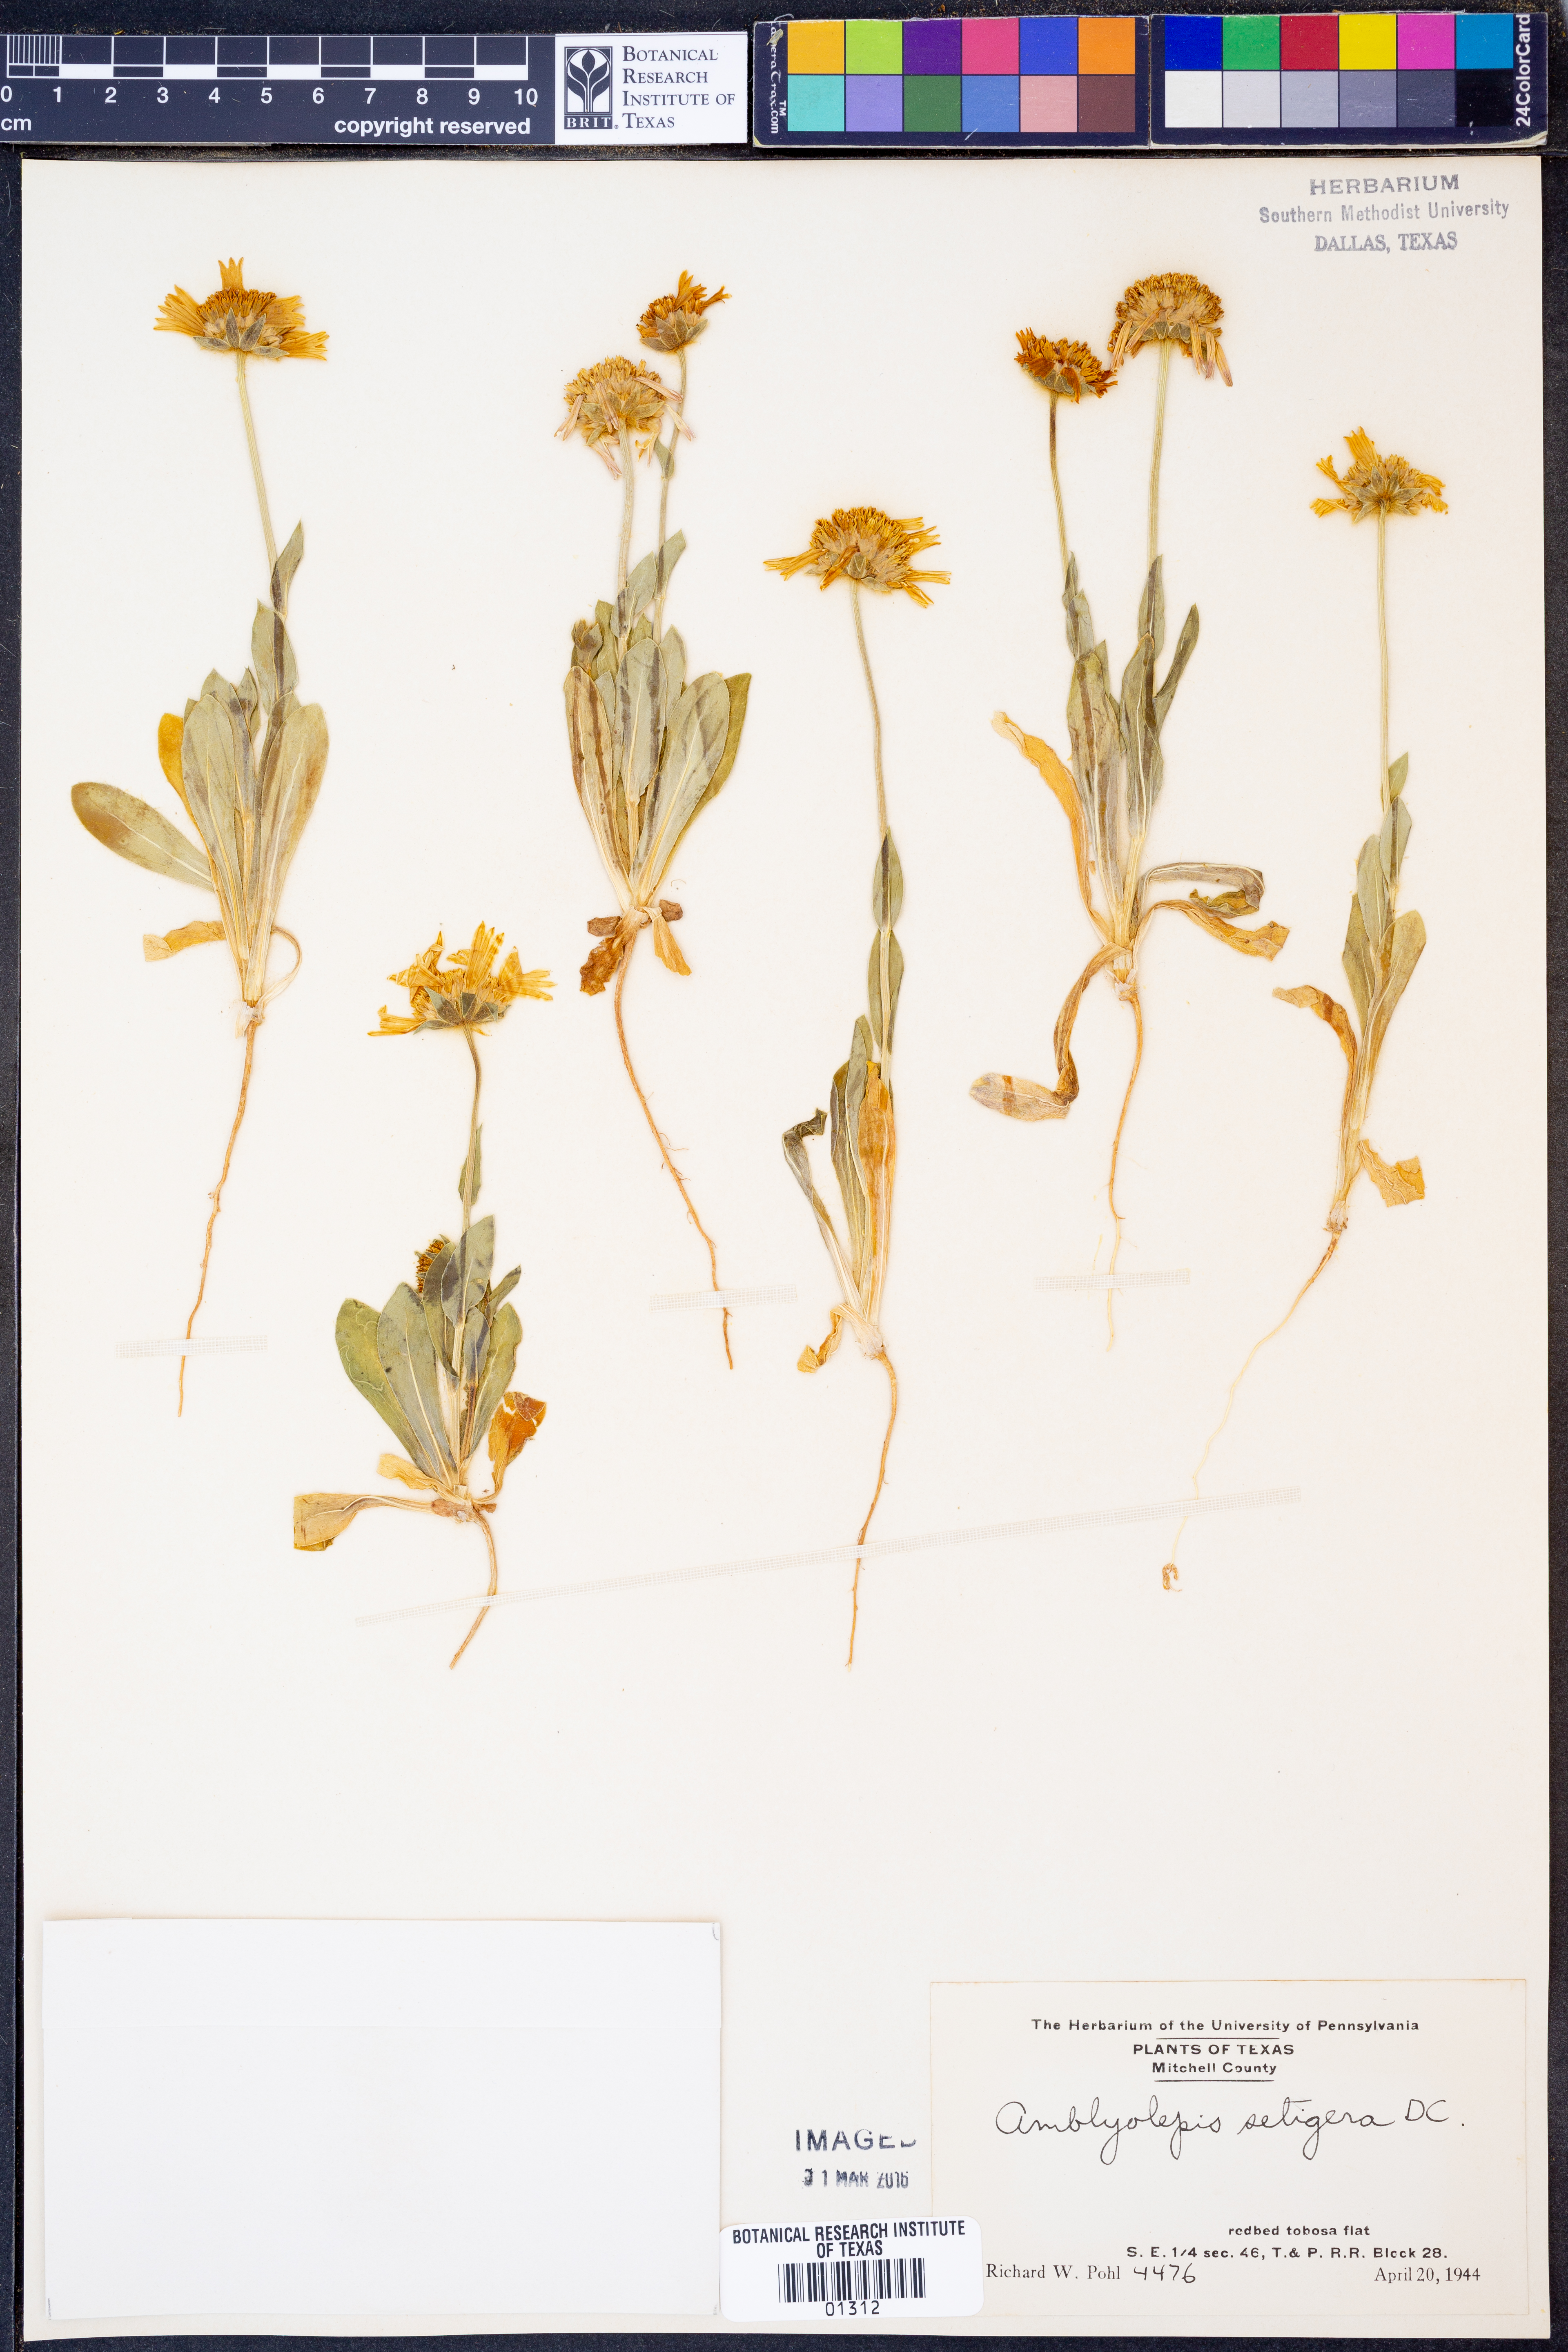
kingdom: Plantae
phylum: Tracheophyta
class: Magnoliopsida
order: Asterales
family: Asteraceae
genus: Amblyolepis
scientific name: Amblyolepis setigera
